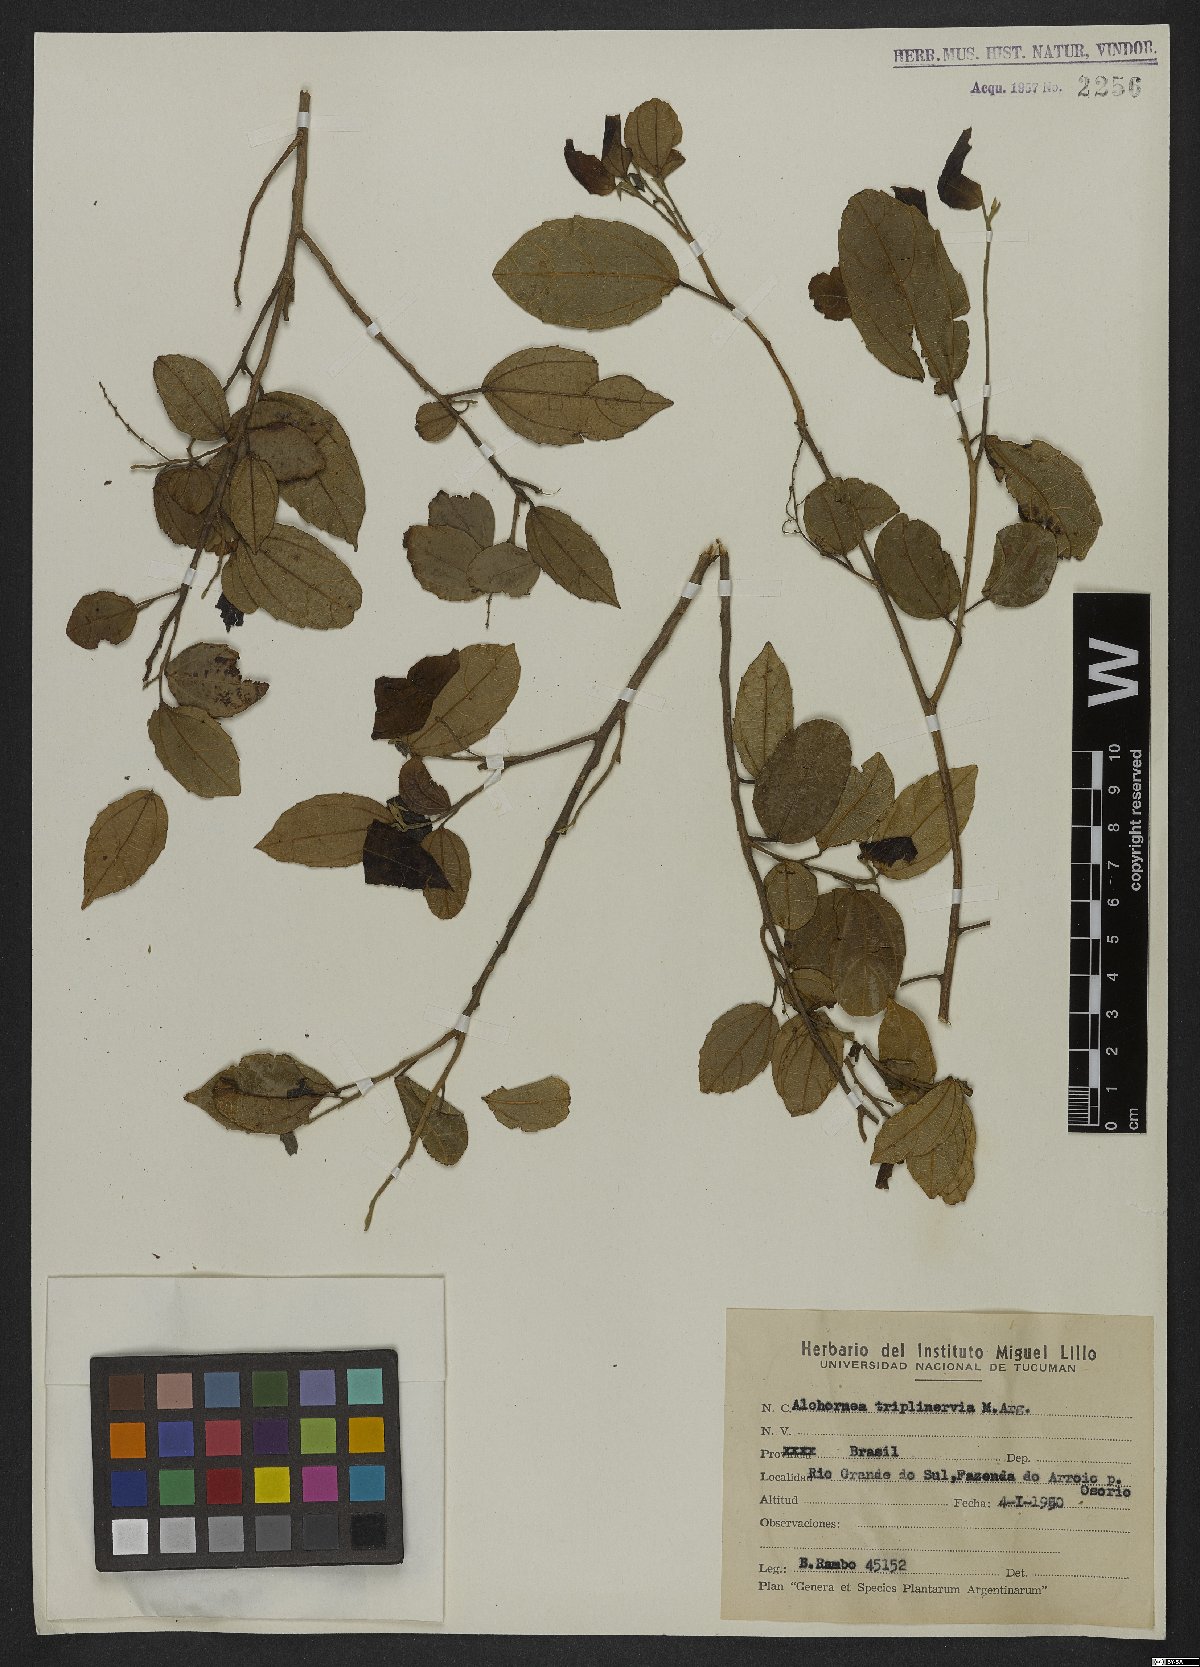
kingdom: Plantae
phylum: Tracheophyta
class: Magnoliopsida
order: Malpighiales
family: Euphorbiaceae
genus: Alchornea
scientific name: Alchornea triplinervia
